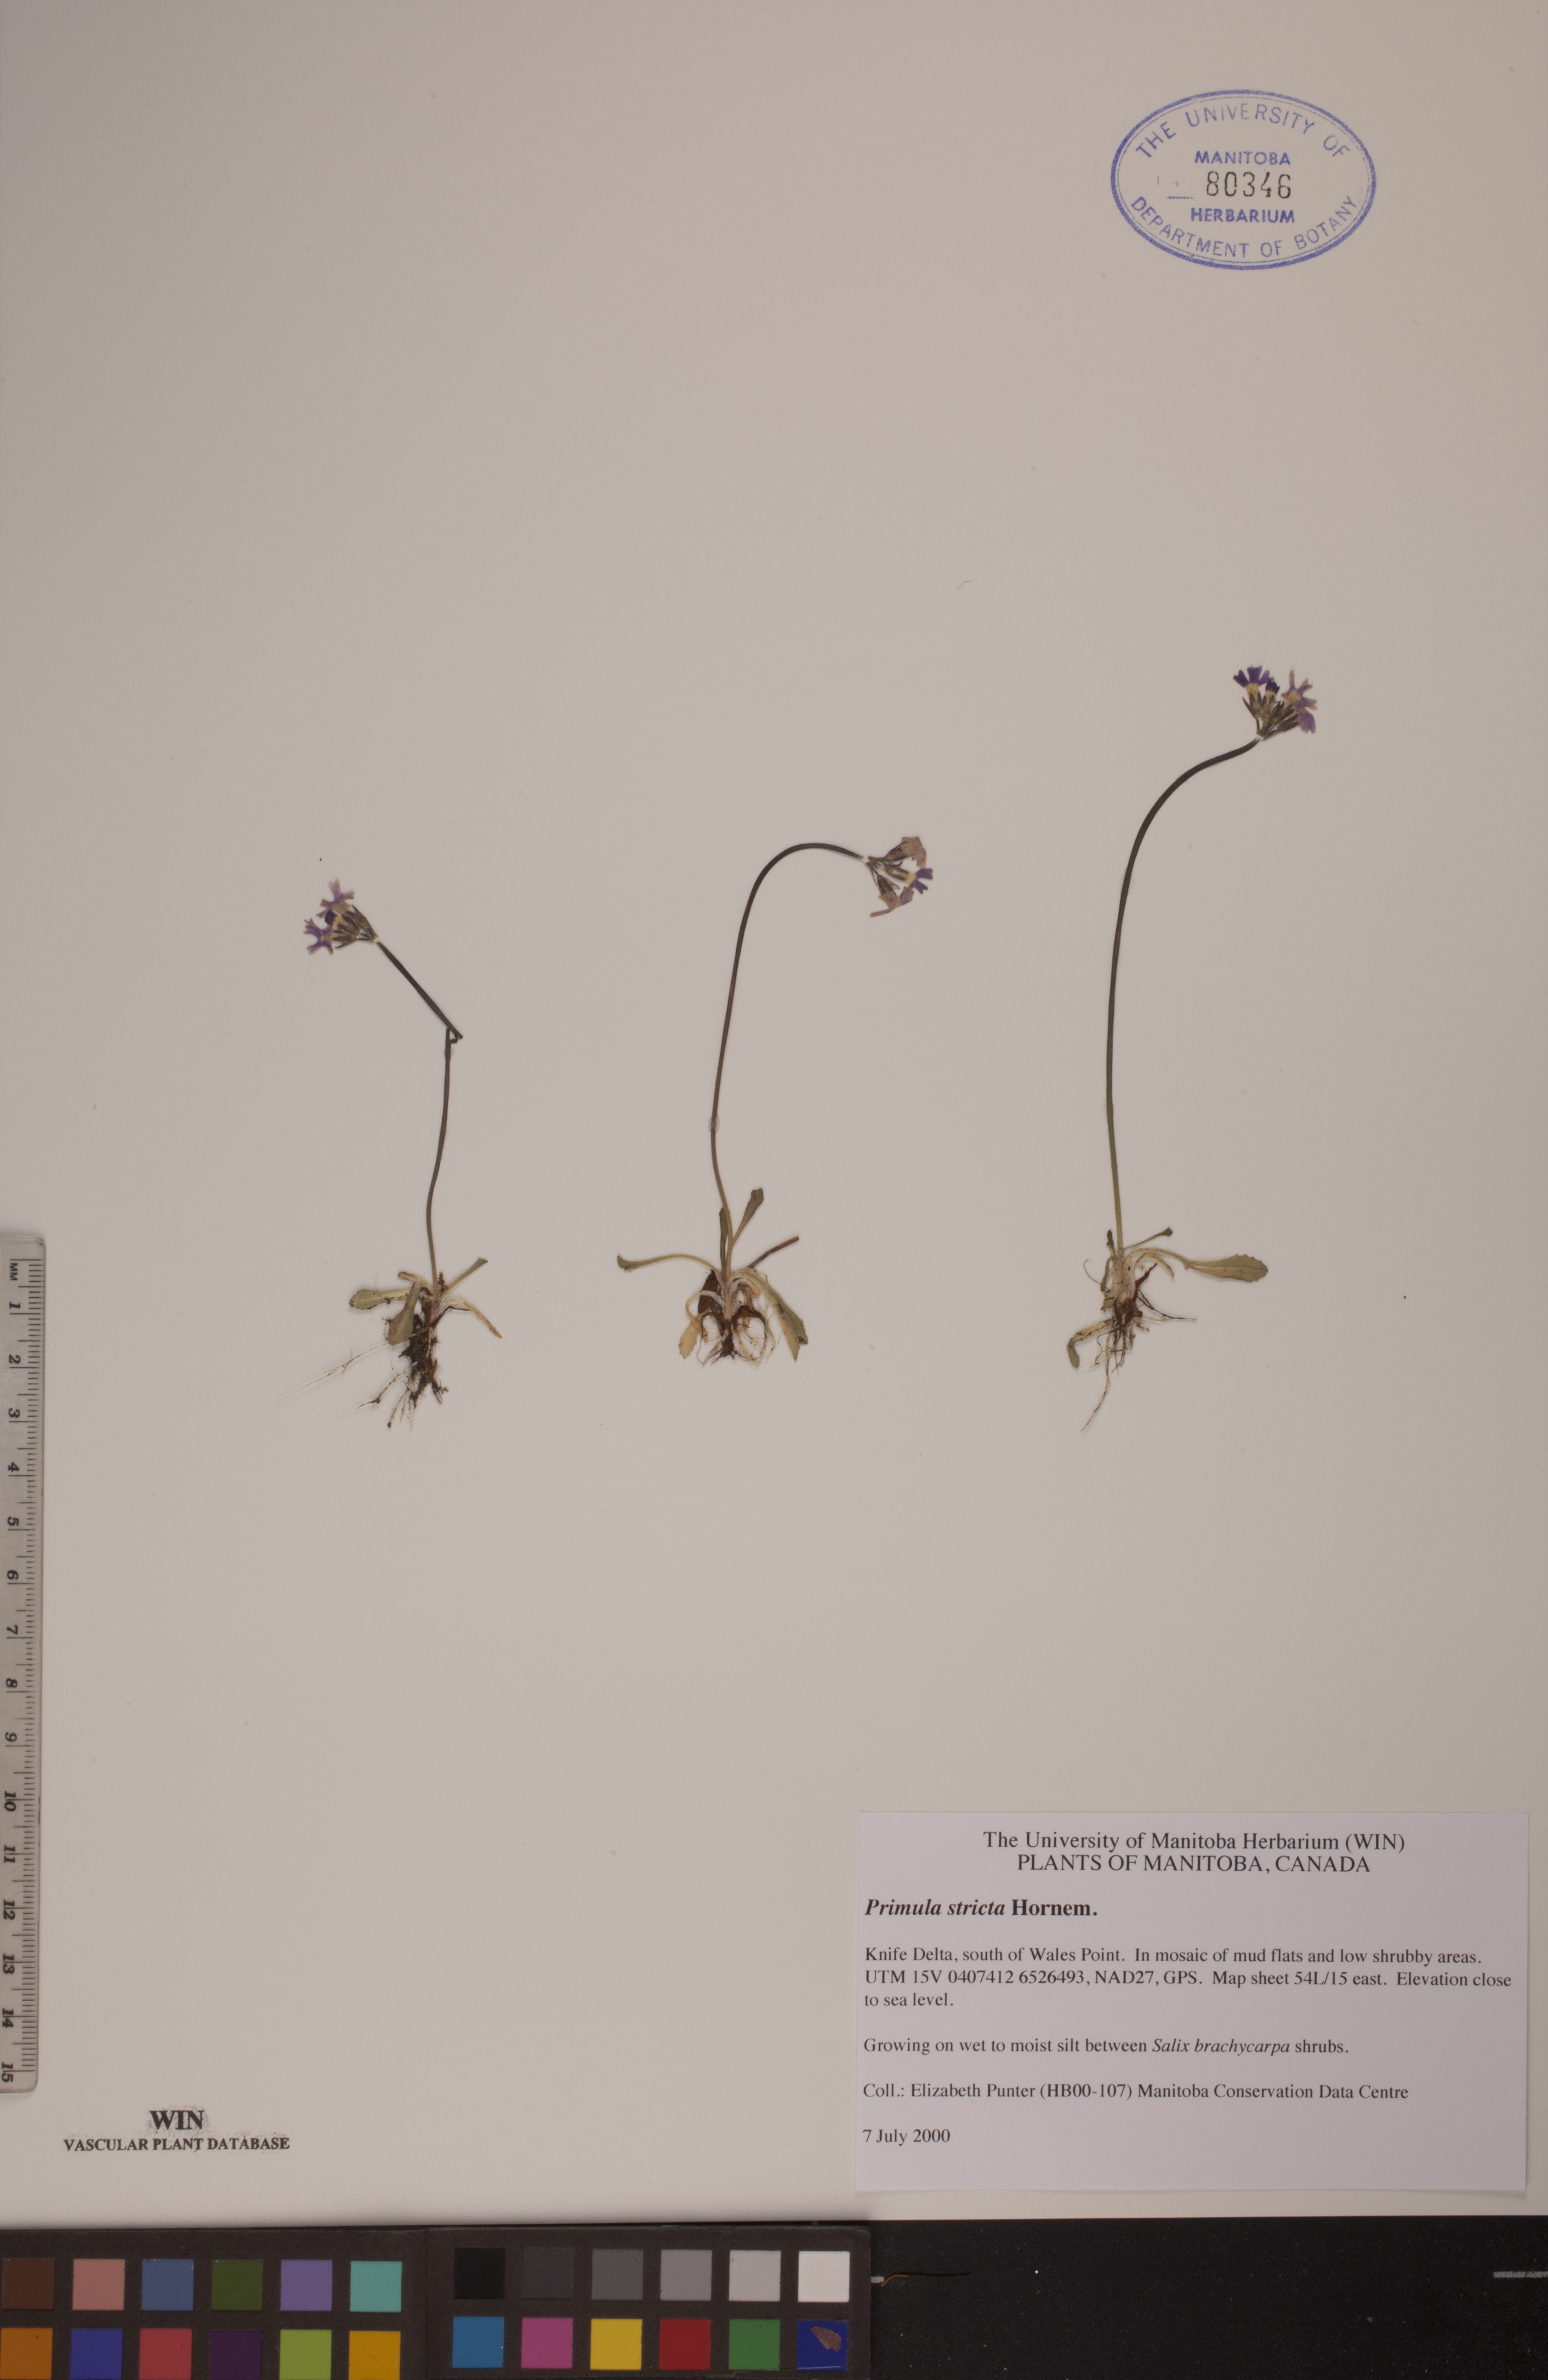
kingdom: Plantae
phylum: Tracheophyta
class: Magnoliopsida
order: Ericales
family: Primulaceae
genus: Primula
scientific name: Primula stricta
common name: Coastal primrose
